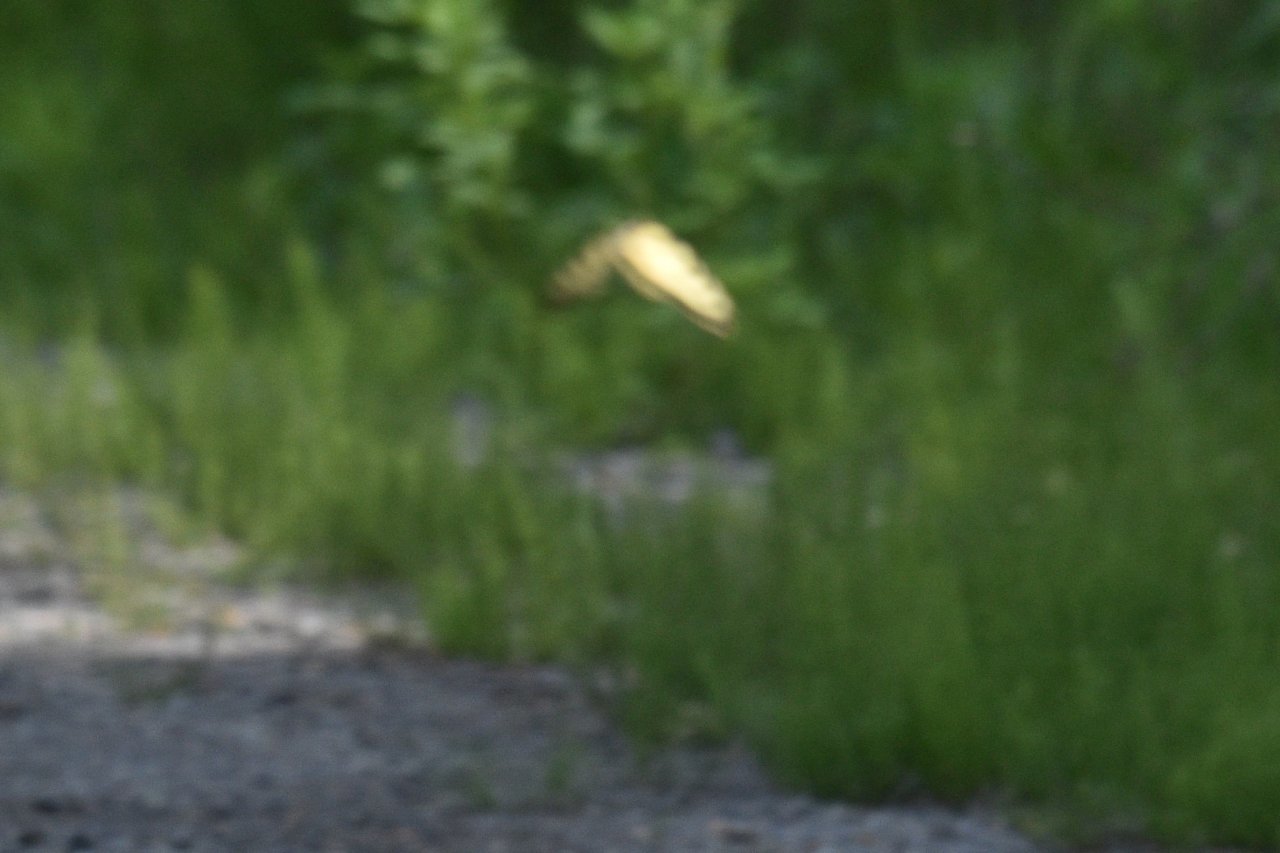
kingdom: Animalia
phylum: Arthropoda
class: Insecta
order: Lepidoptera
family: Papilionidae
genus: Pterourus
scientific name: Pterourus canadensis
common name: Canadian Tiger Swallowtail
